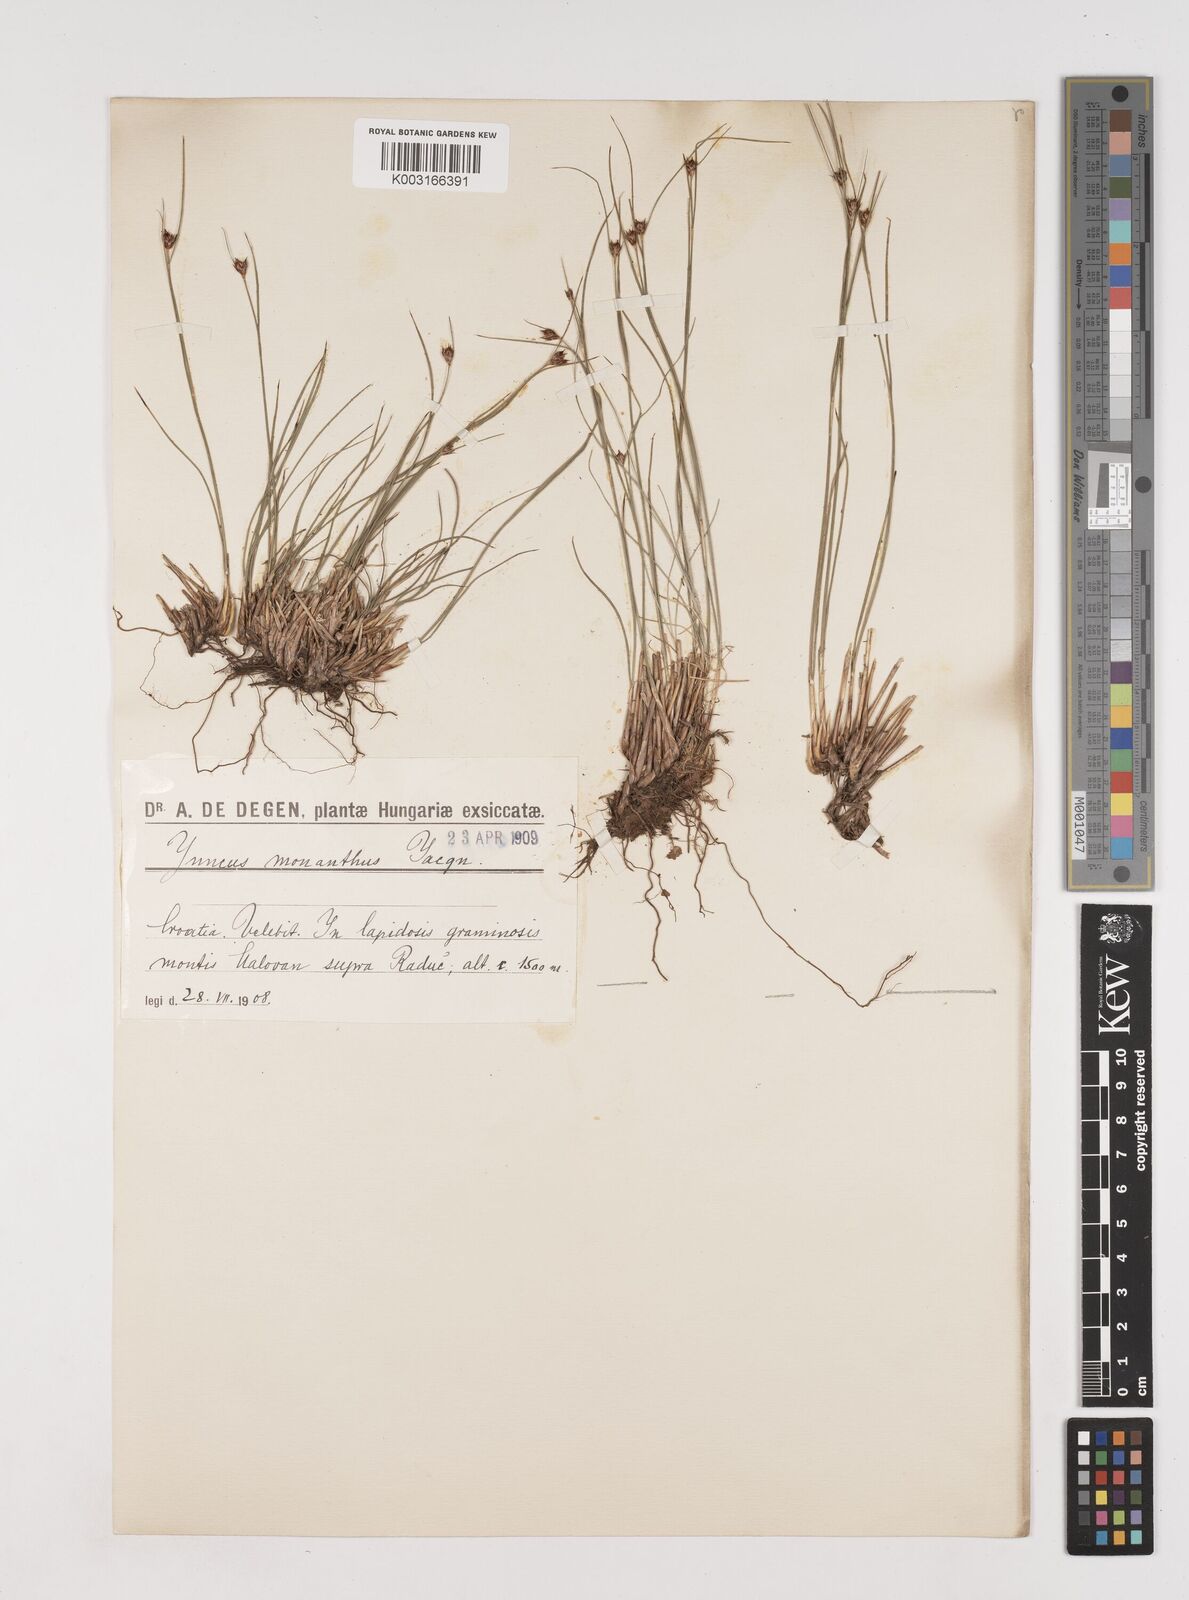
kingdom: Plantae
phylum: Tracheophyta
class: Liliopsida
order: Poales
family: Juncaceae
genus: Oreojuncus
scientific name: Oreojuncus trifidus
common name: Highland rush
